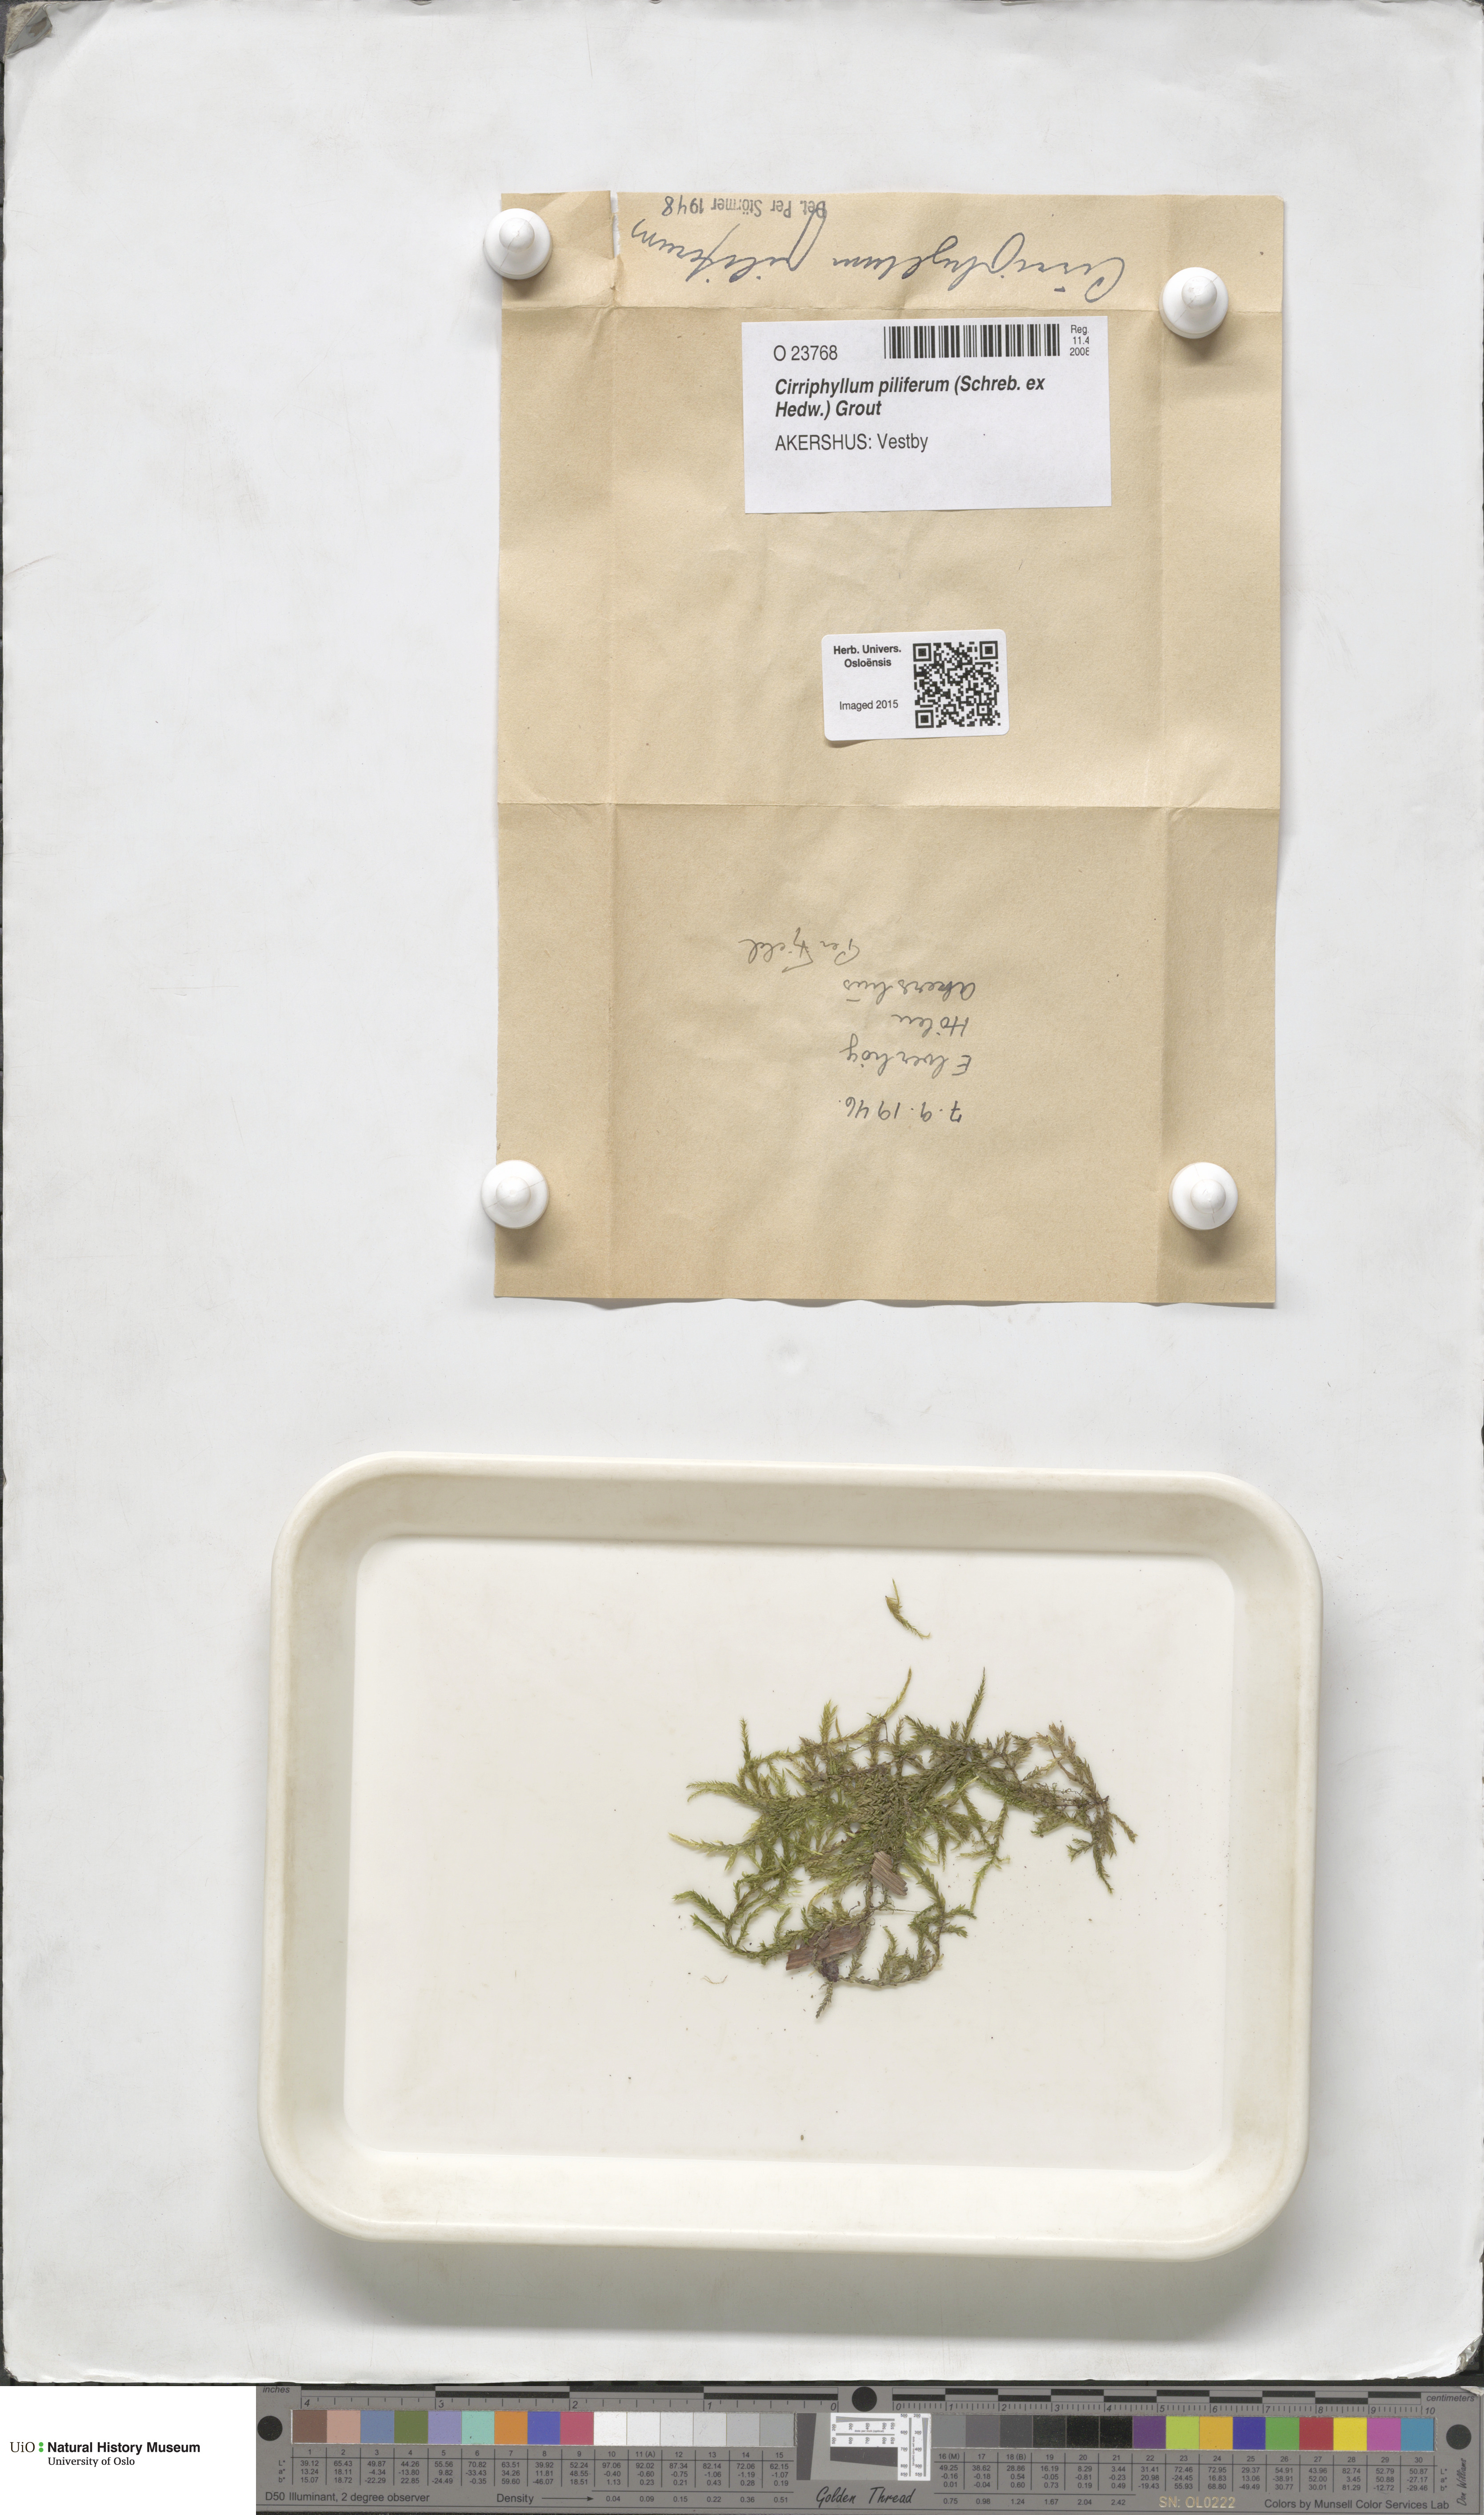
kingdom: Plantae
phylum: Bryophyta
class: Bryopsida
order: Hypnales
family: Brachytheciaceae
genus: Cirriphyllum
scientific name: Cirriphyllum piliferum
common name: Hair-pointed moss
